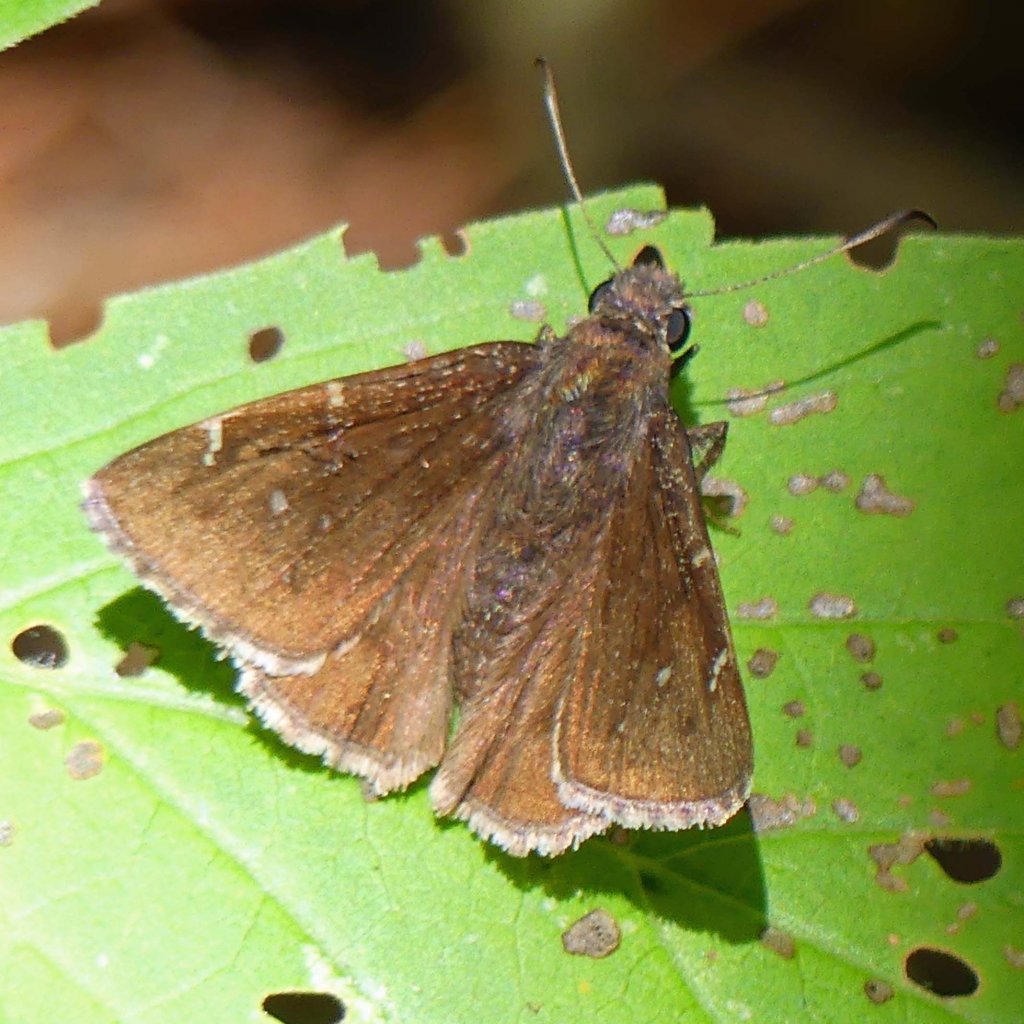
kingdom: Animalia
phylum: Arthropoda
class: Insecta
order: Lepidoptera
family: Hesperiidae
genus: Autochton
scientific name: Autochton
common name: Northern Cloudywing
